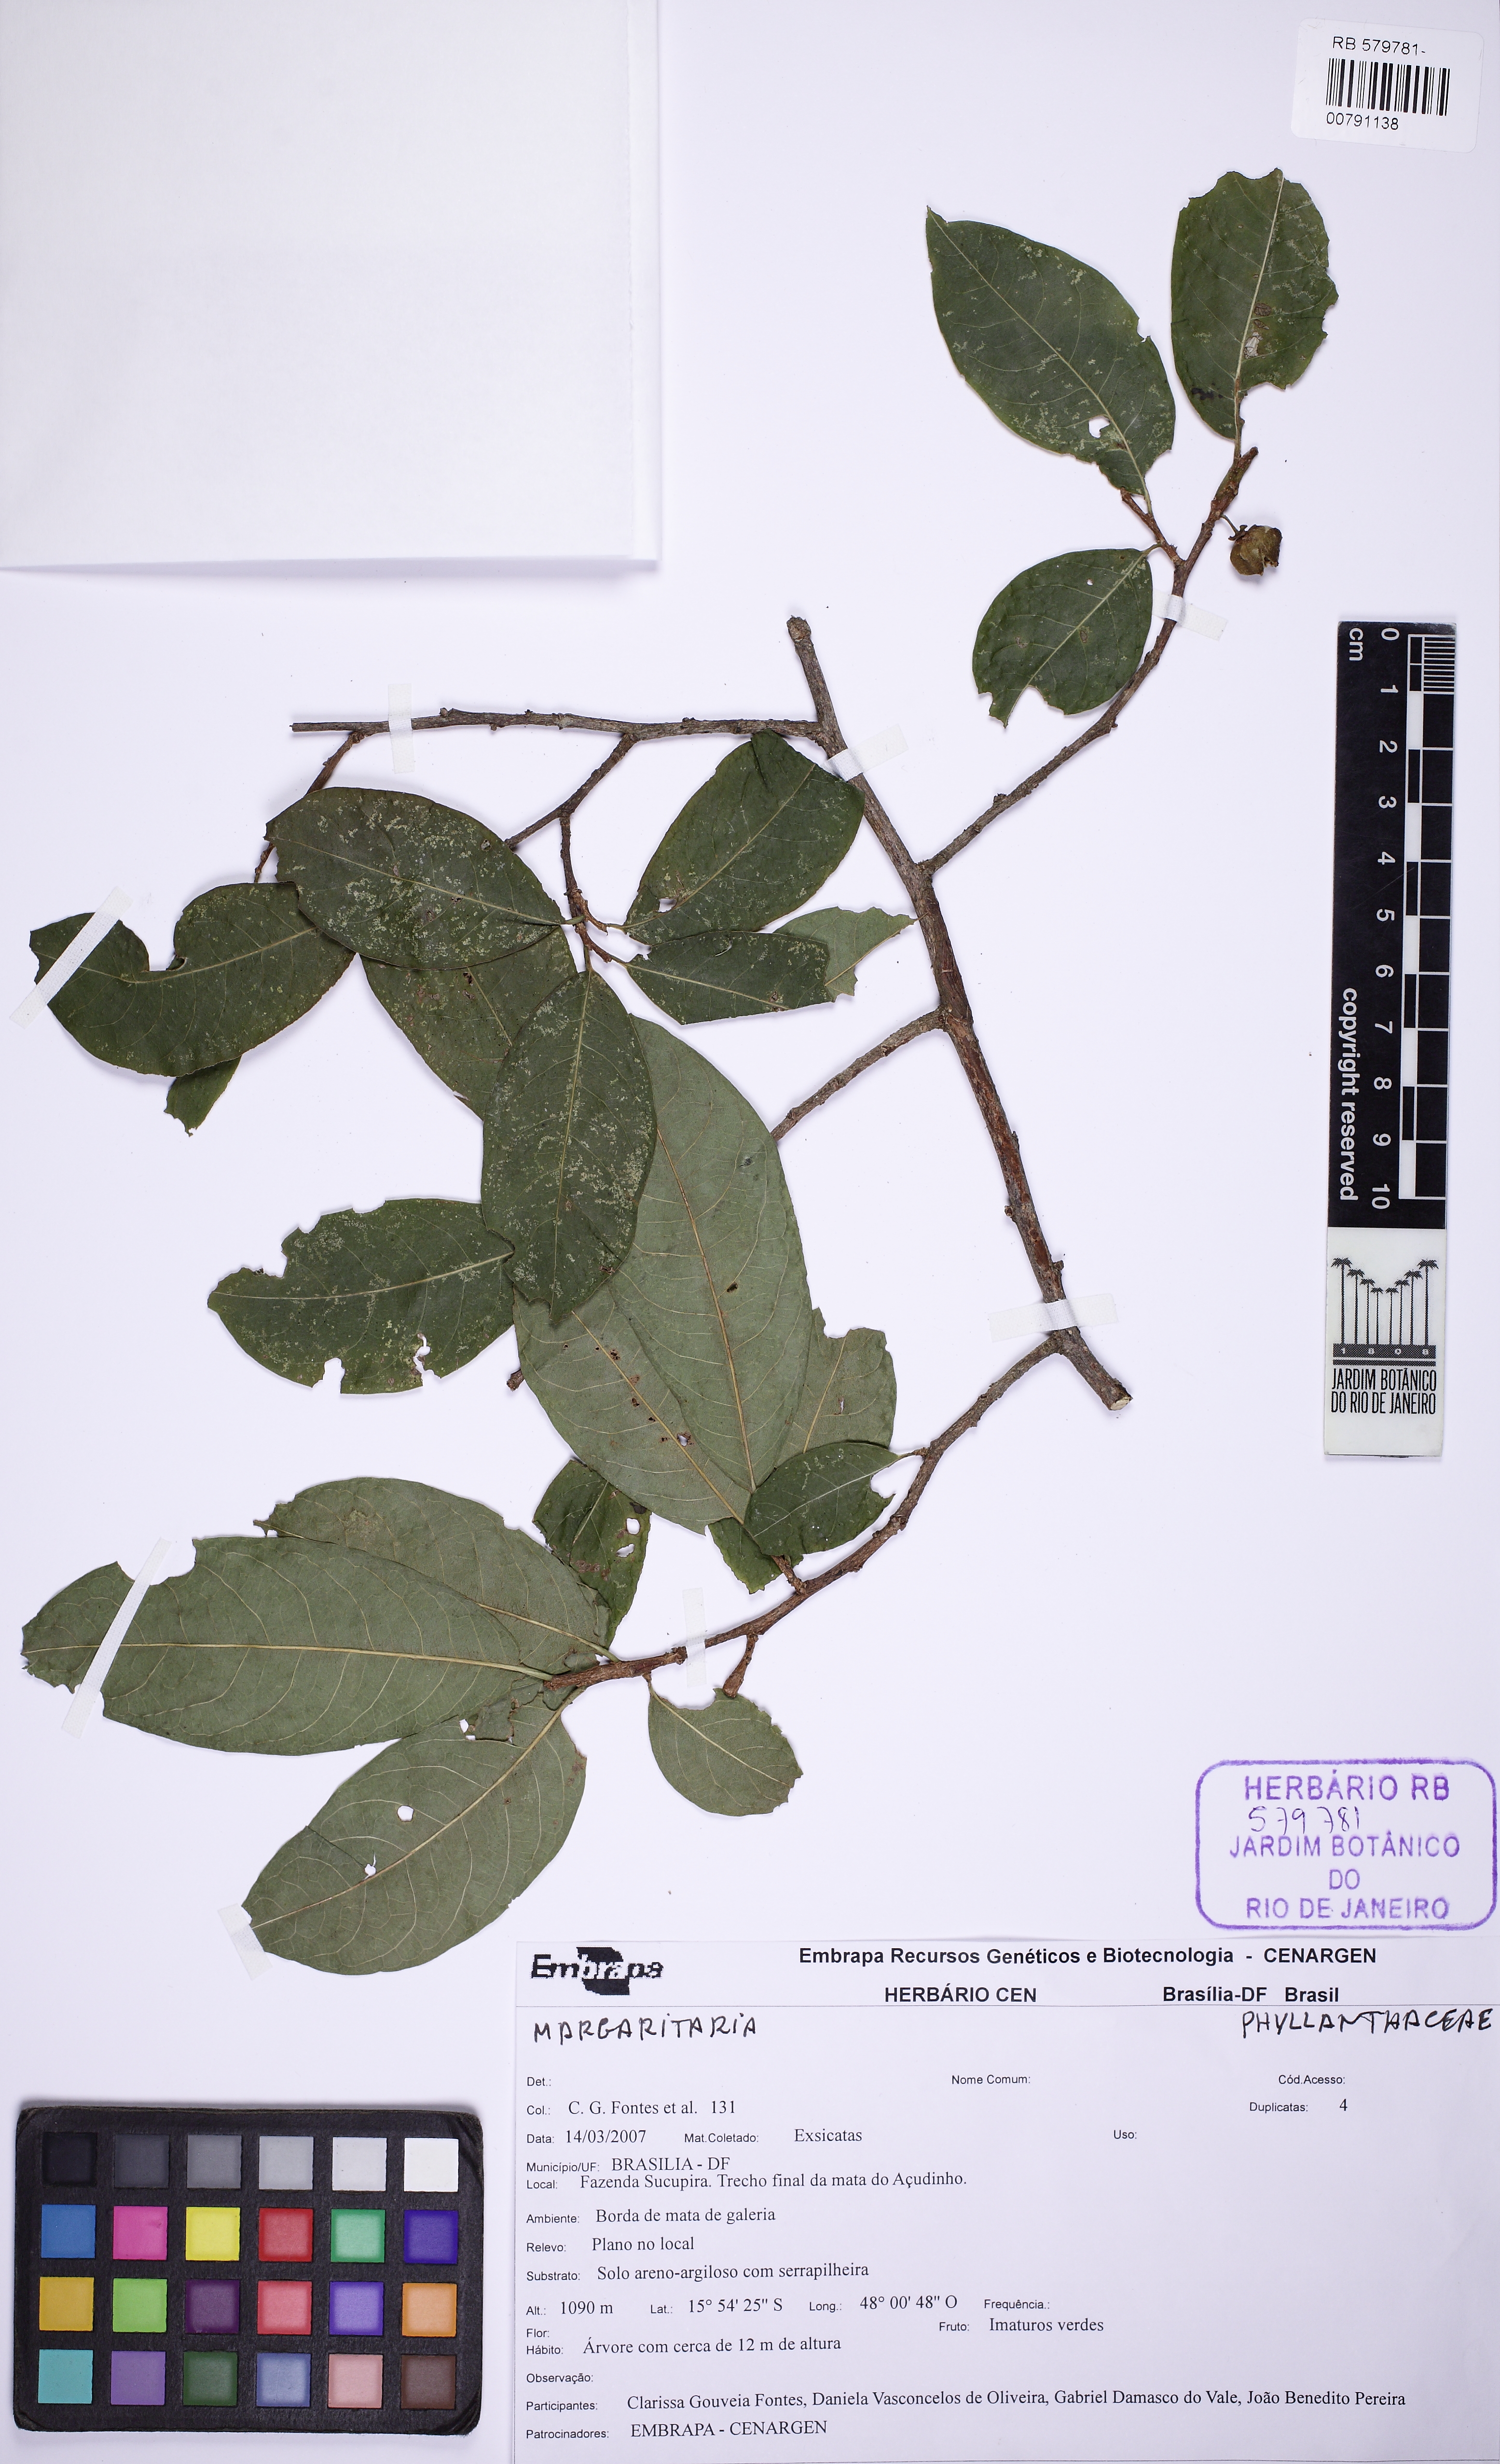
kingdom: Plantae
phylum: Tracheophyta
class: Magnoliopsida
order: Malpighiales
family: Phyllanthaceae
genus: Margaritaria
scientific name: Margaritaria nobilis
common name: Goose berry
